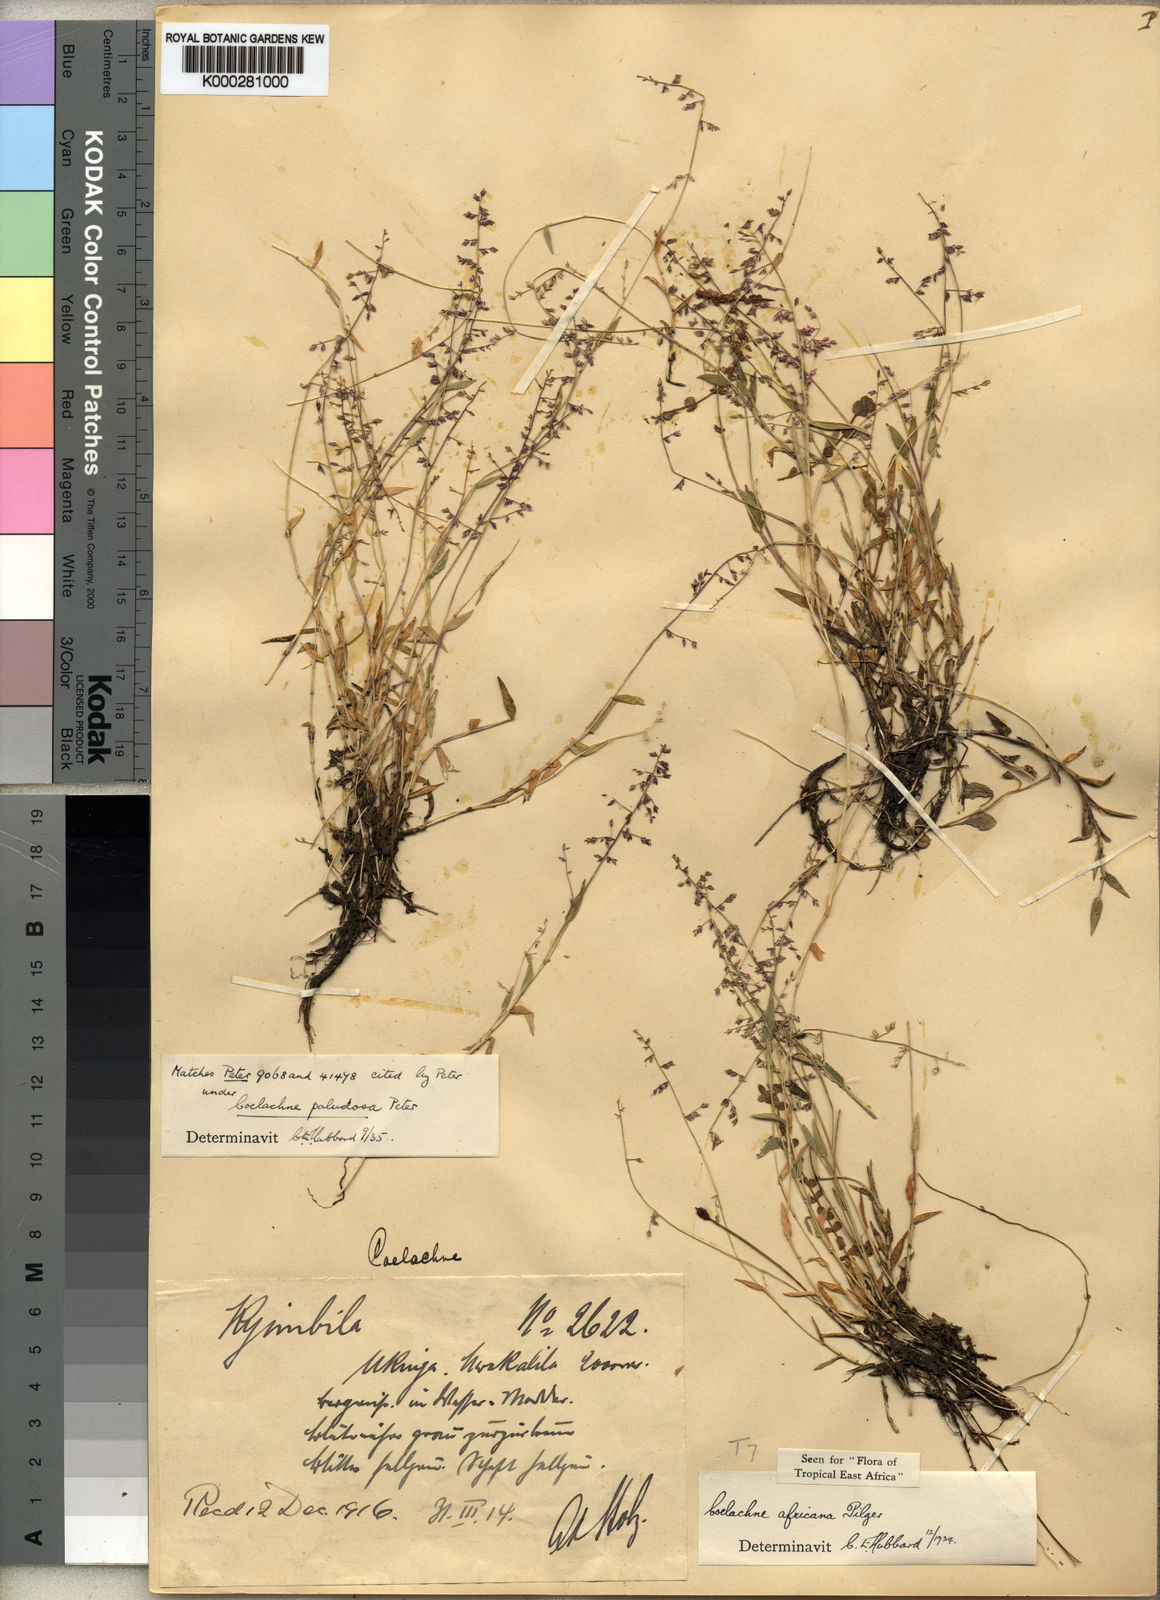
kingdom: Plantae
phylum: Tracheophyta
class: Liliopsida
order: Poales
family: Poaceae
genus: Coelachne
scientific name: Coelachne africana
